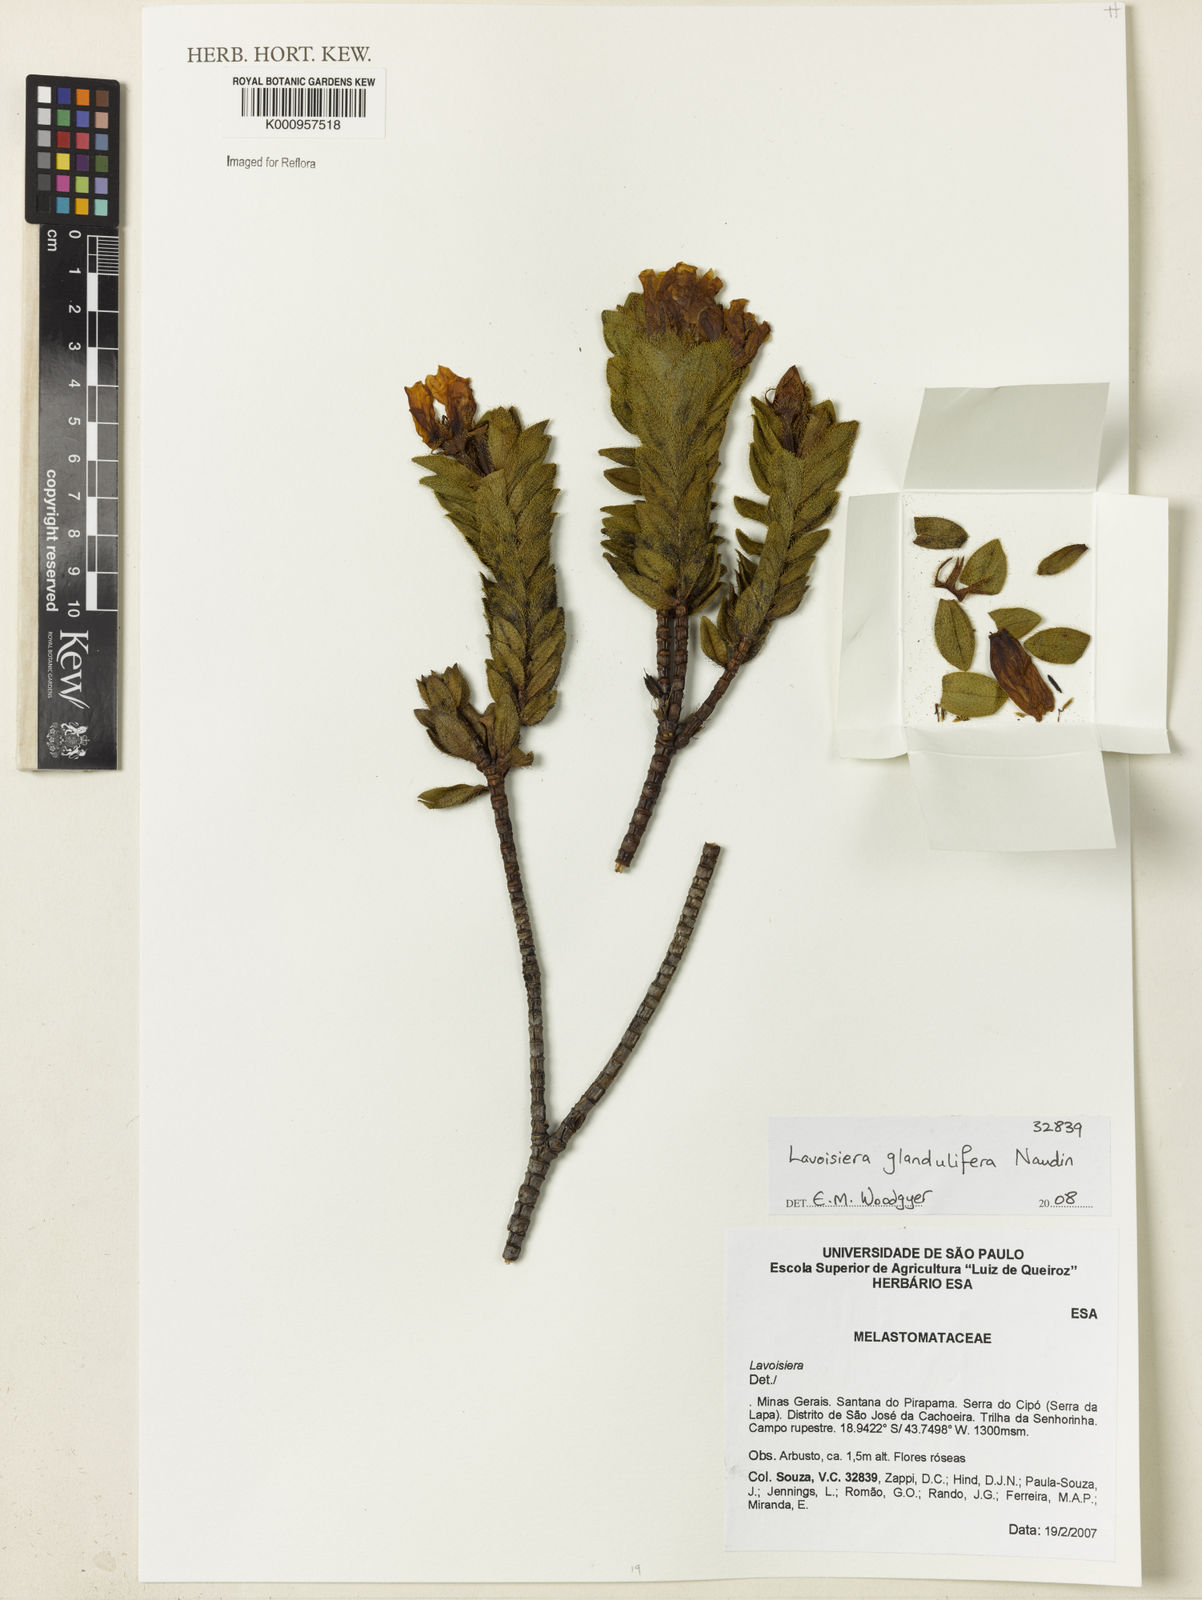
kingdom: Plantae
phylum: Tracheophyta
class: Magnoliopsida
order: Myrtales
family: Melastomataceae
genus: Microlicia
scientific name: Microlicia glandulifolia
